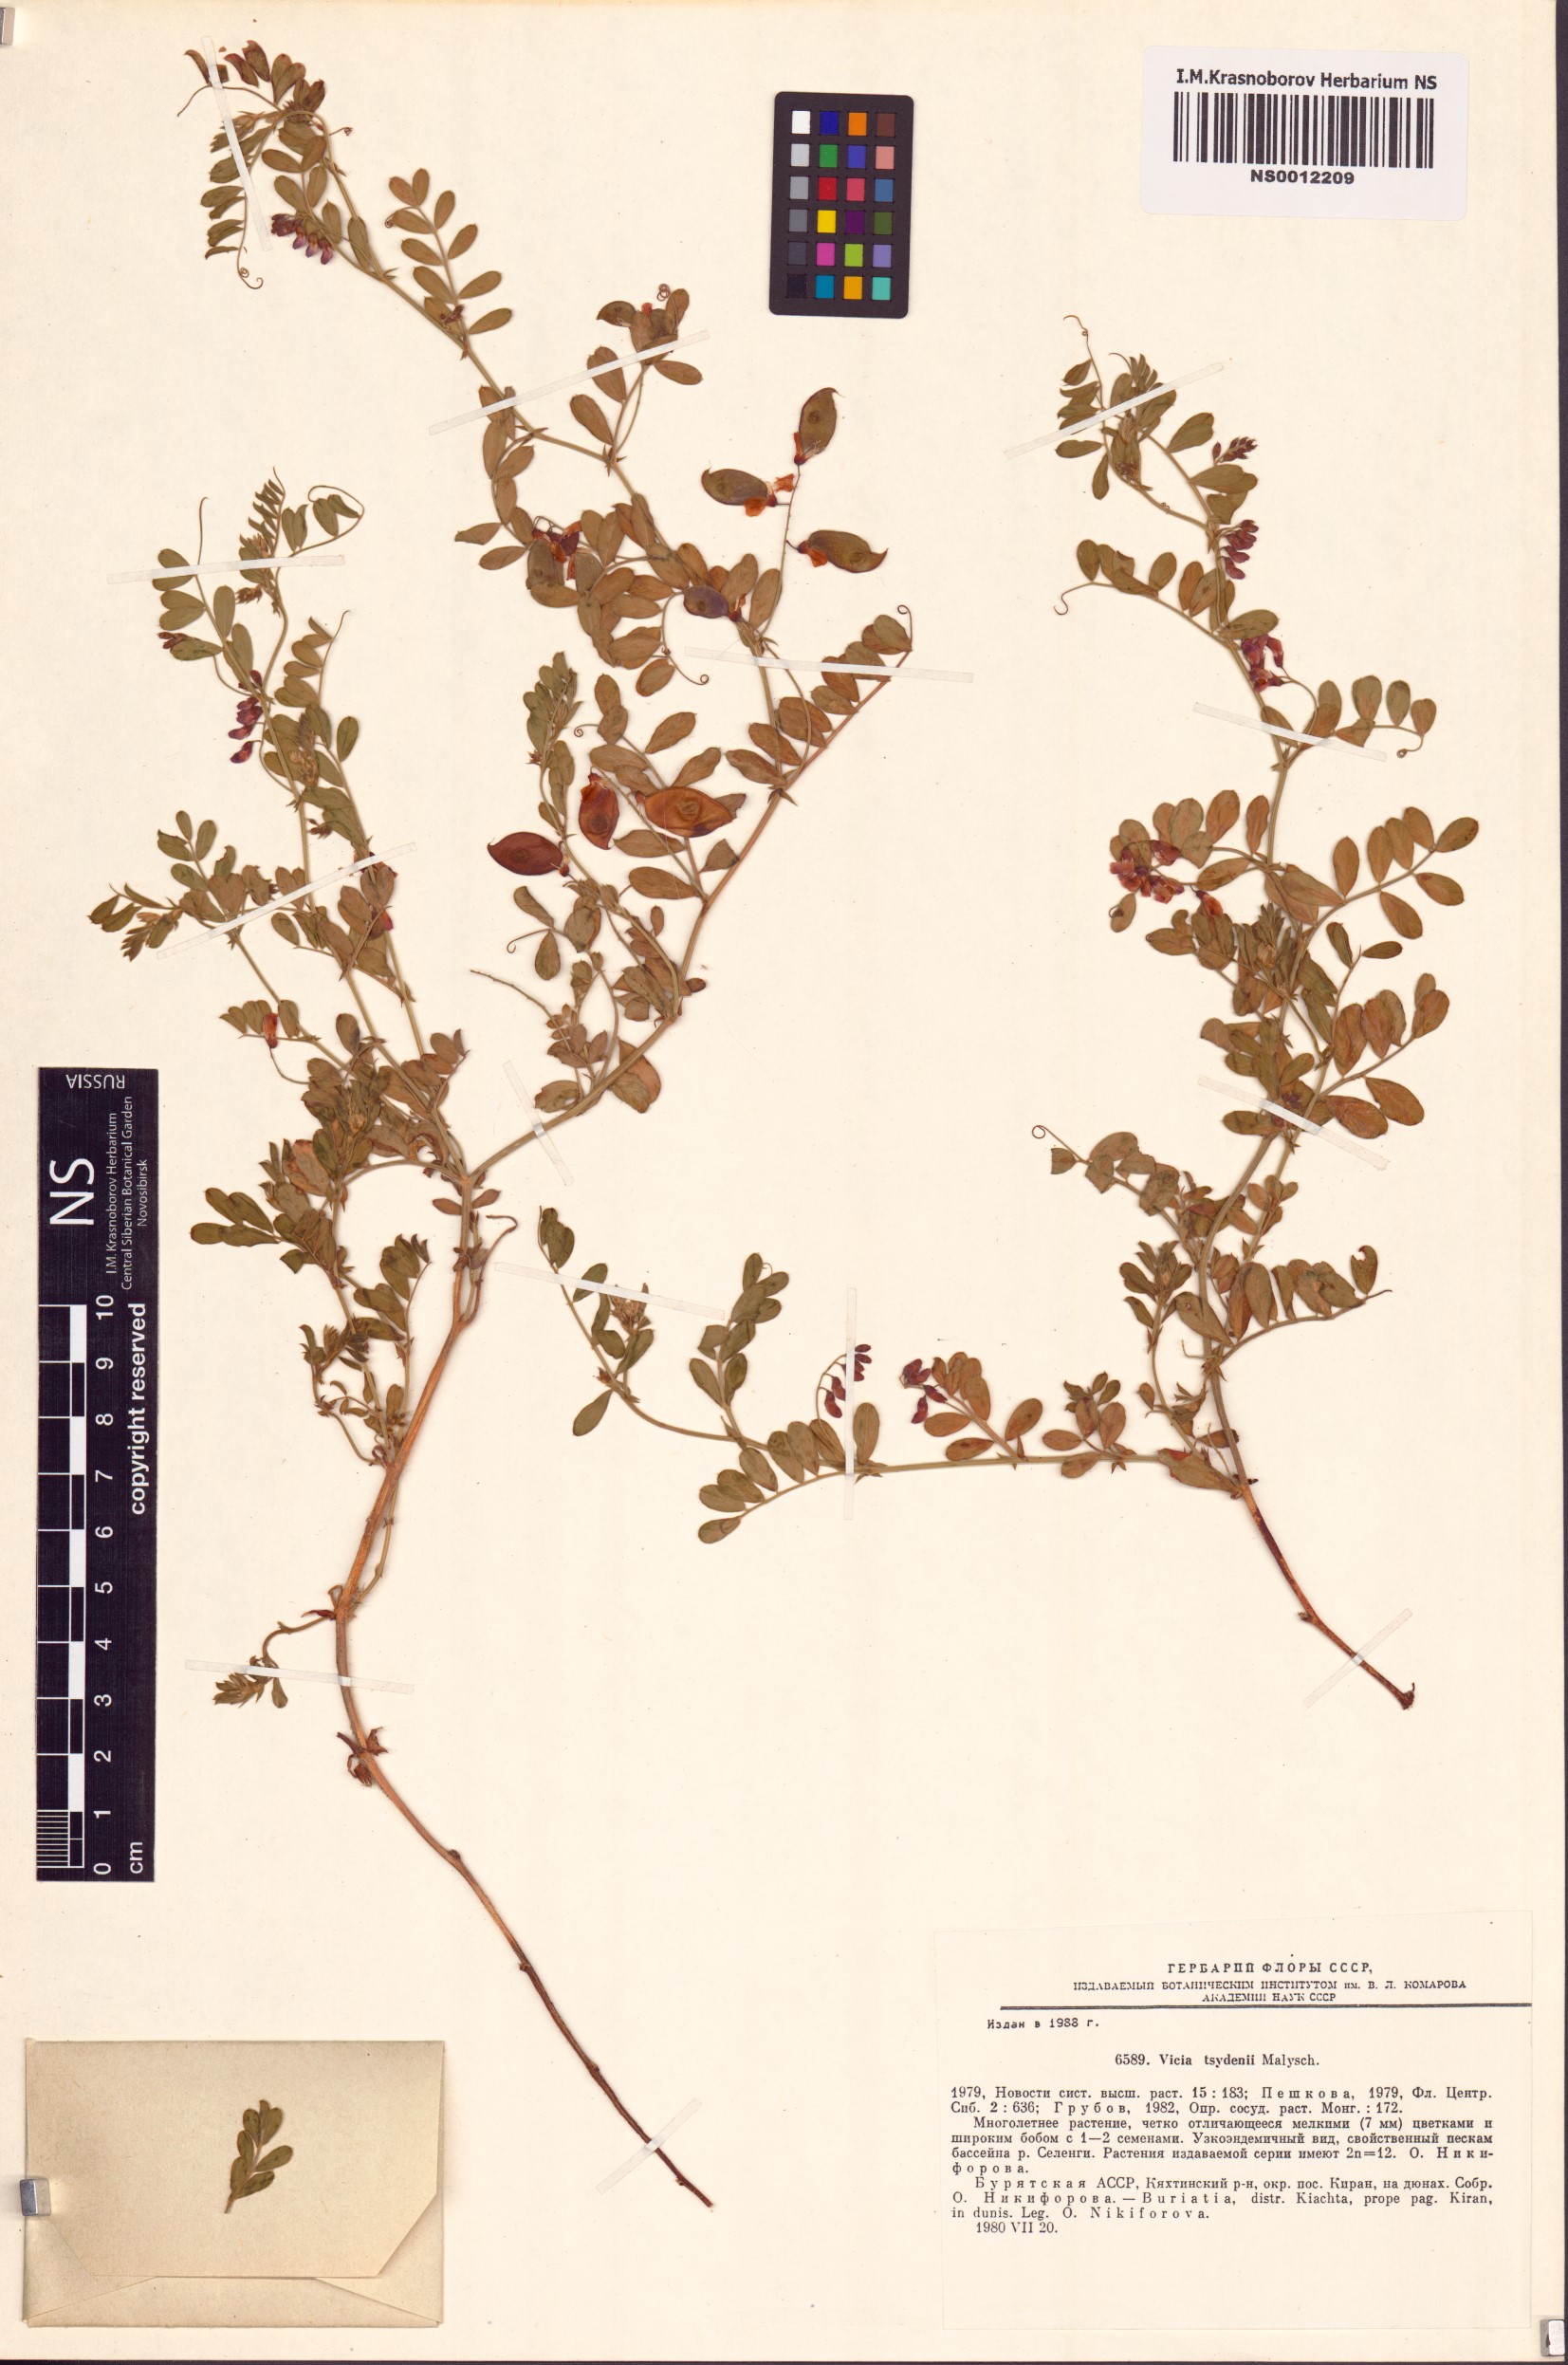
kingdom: Plantae
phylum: Tracheophyta
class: Magnoliopsida
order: Fabales
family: Fabaceae
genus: Vicia
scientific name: Vicia tsydenii
